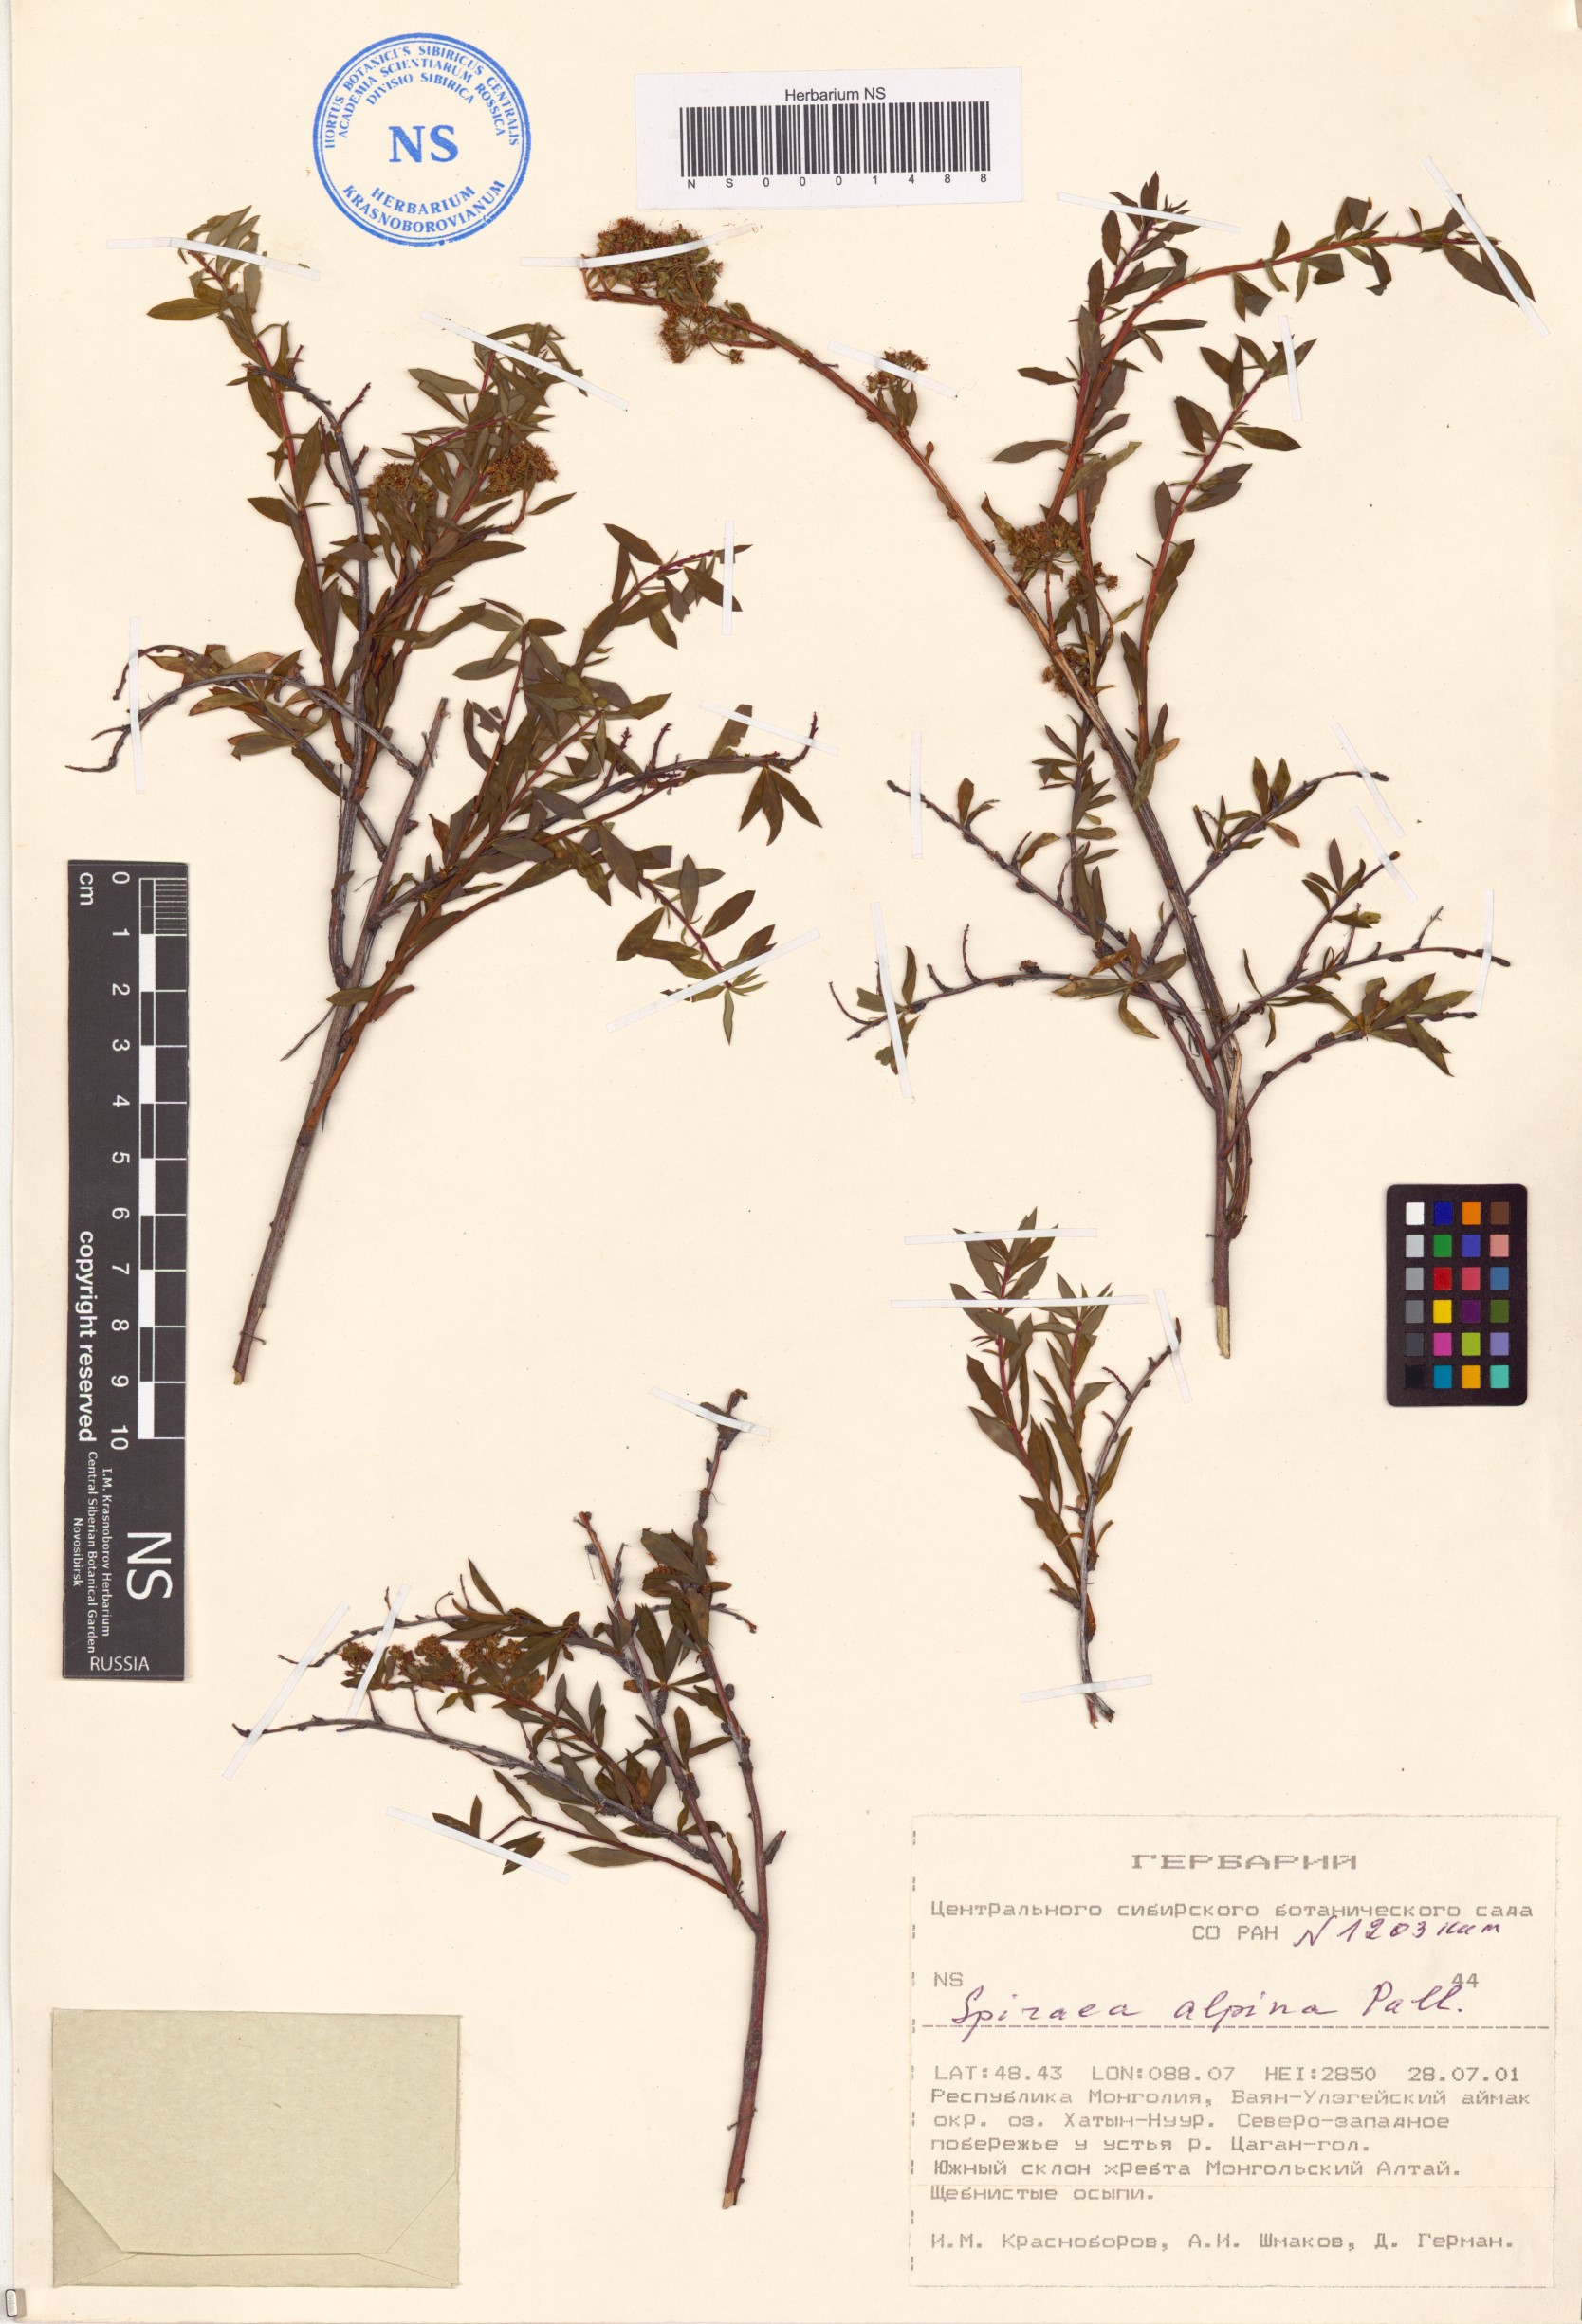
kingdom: Plantae
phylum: Tracheophyta
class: Magnoliopsida
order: Rosales
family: Rosaceae
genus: Spiraea
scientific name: Spiraea alpina
